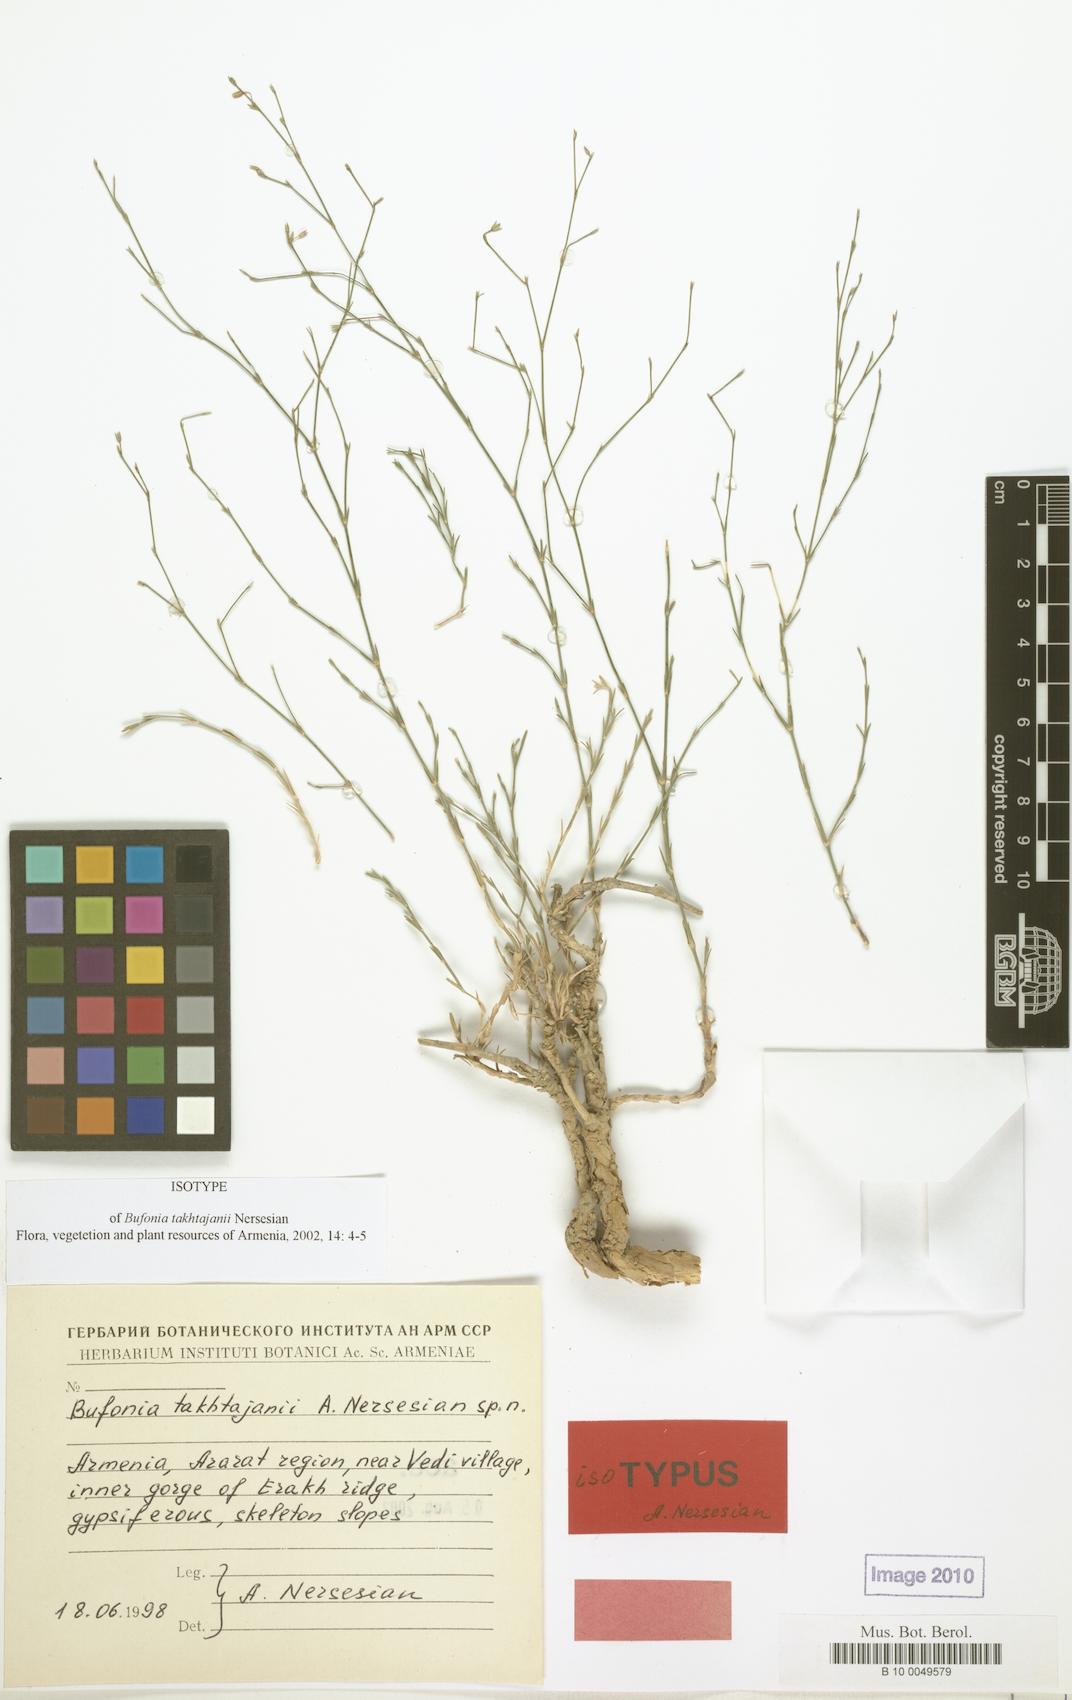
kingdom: Plantae
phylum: Tracheophyta
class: Magnoliopsida
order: Caryophyllales
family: Caryophyllaceae
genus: Bufonia
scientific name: Bufonia takhtajanii
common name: Takhtadjyan's bufonia
